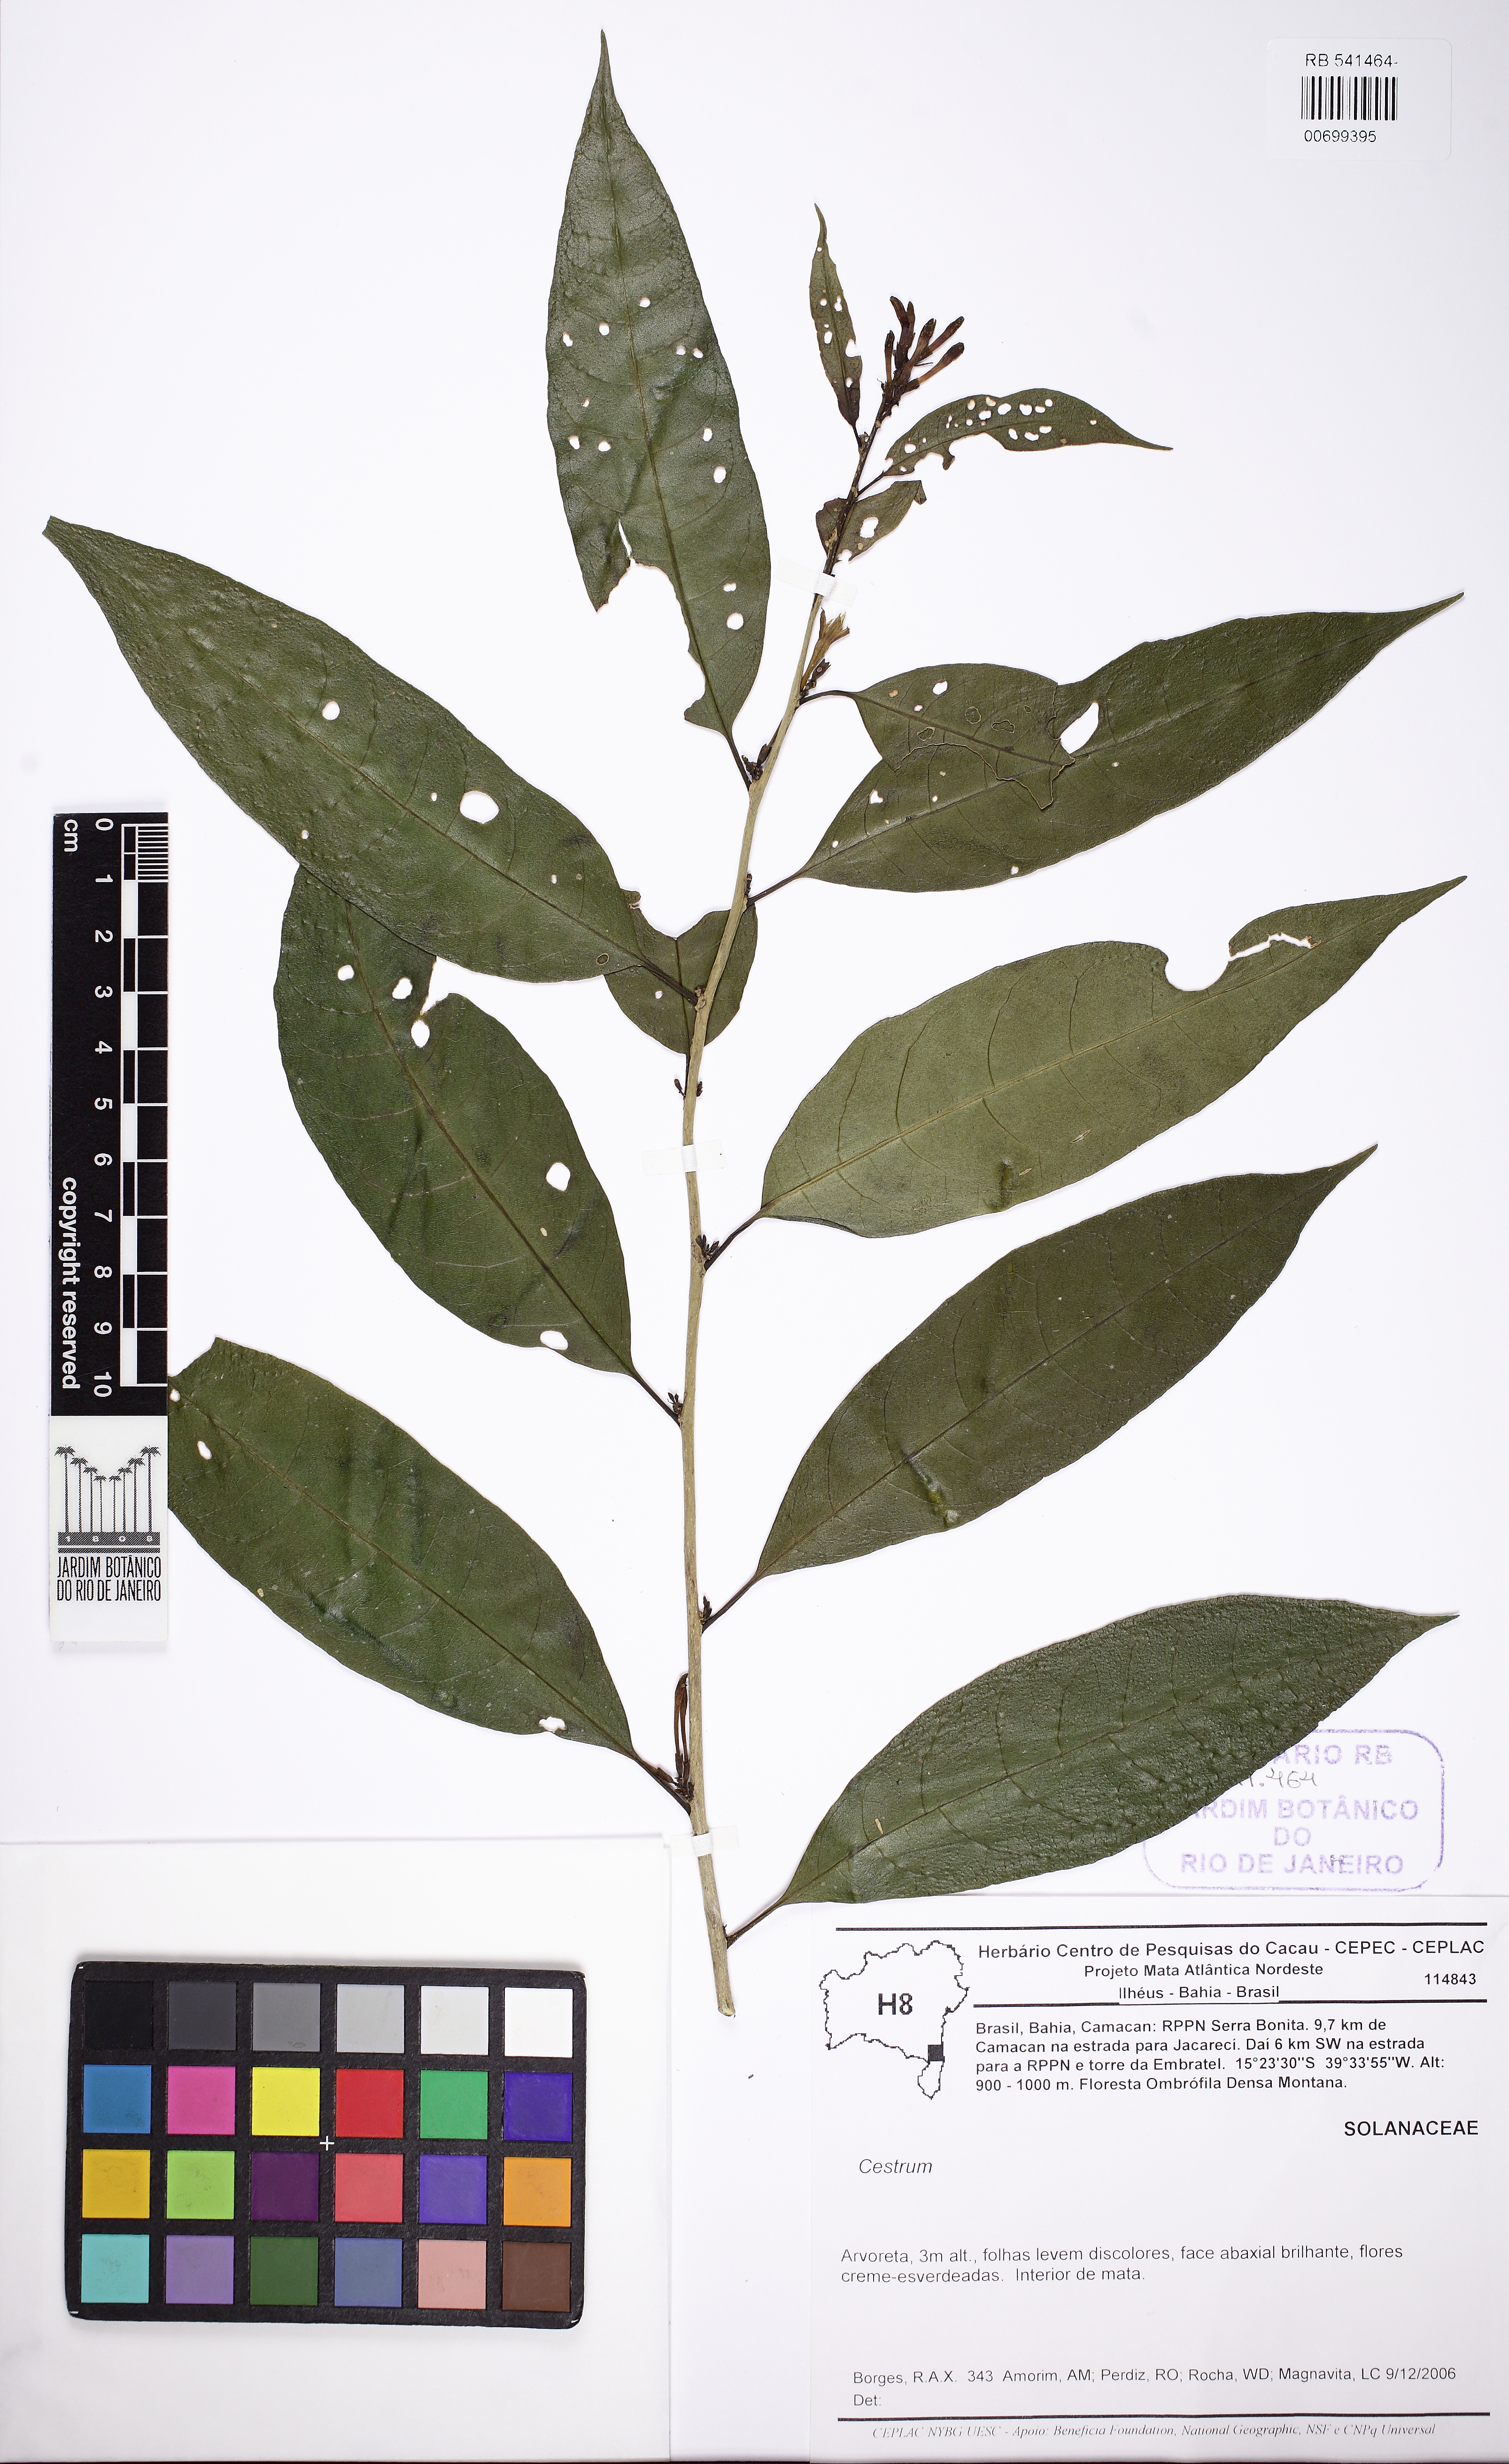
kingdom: Plantae
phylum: Tracheophyta
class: Magnoliopsida
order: Solanales
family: Solanaceae
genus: Cestrum
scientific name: Cestrum
